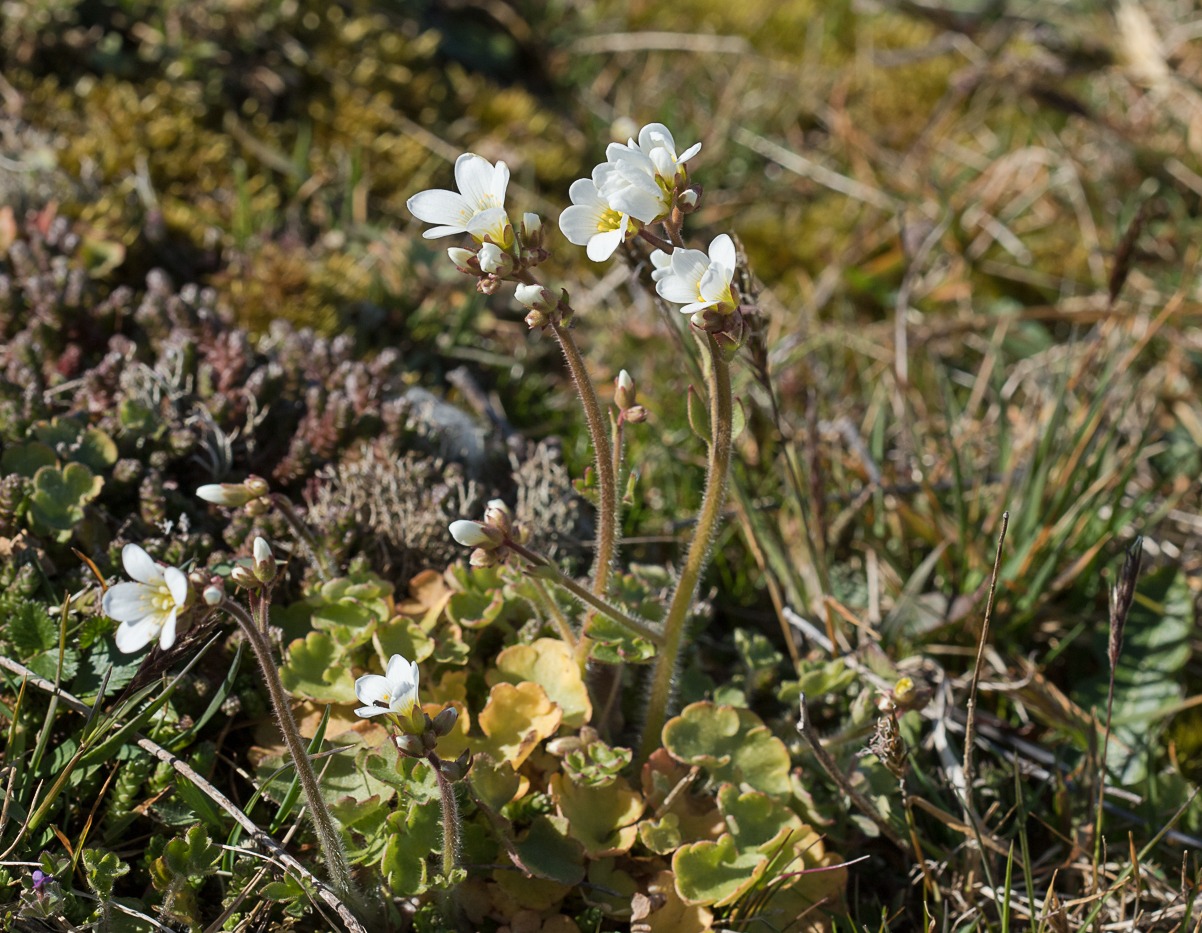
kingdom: Plantae
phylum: Tracheophyta
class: Magnoliopsida
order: Saxifragales
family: Saxifragaceae
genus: Saxifraga
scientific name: Saxifraga granulata
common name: Kornet stenbræk
